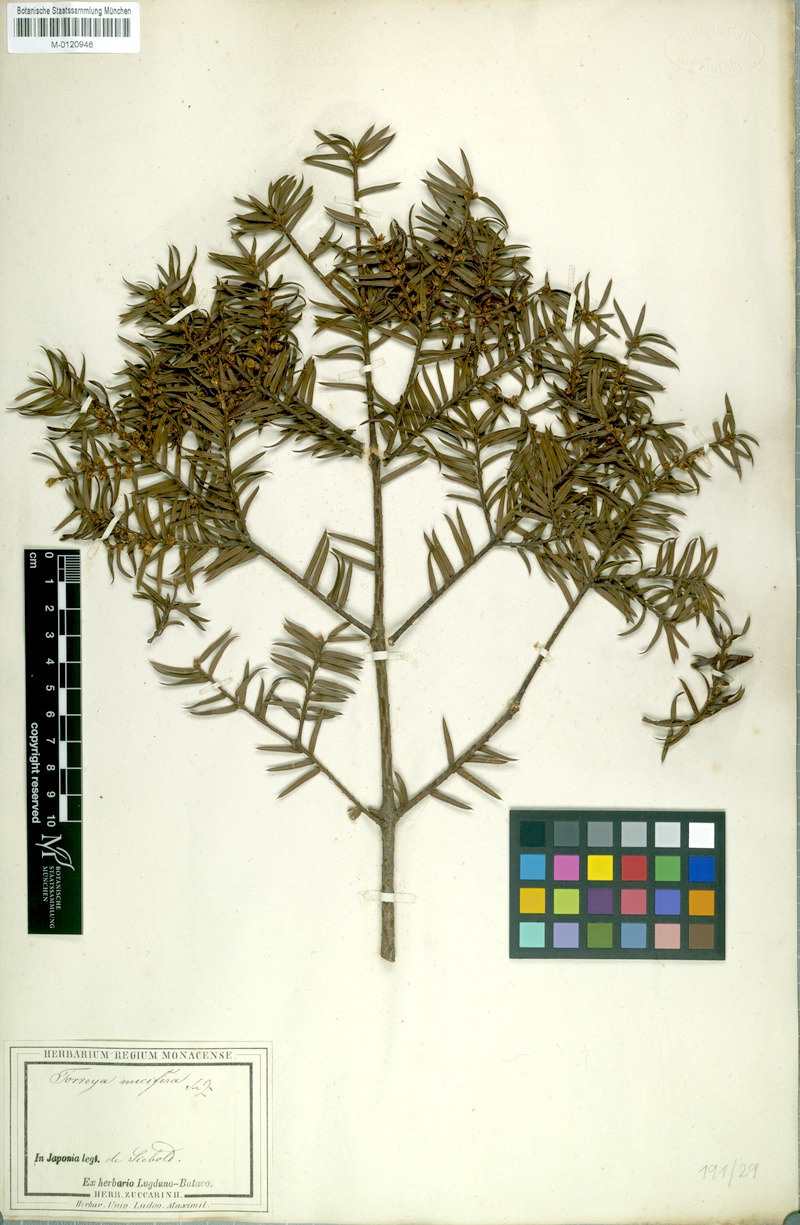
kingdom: Plantae
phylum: Tracheophyta
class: Pinopsida
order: Pinales
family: Taxaceae
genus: Torreya
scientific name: Torreya nucifera
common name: Japanese nutmeg tree
